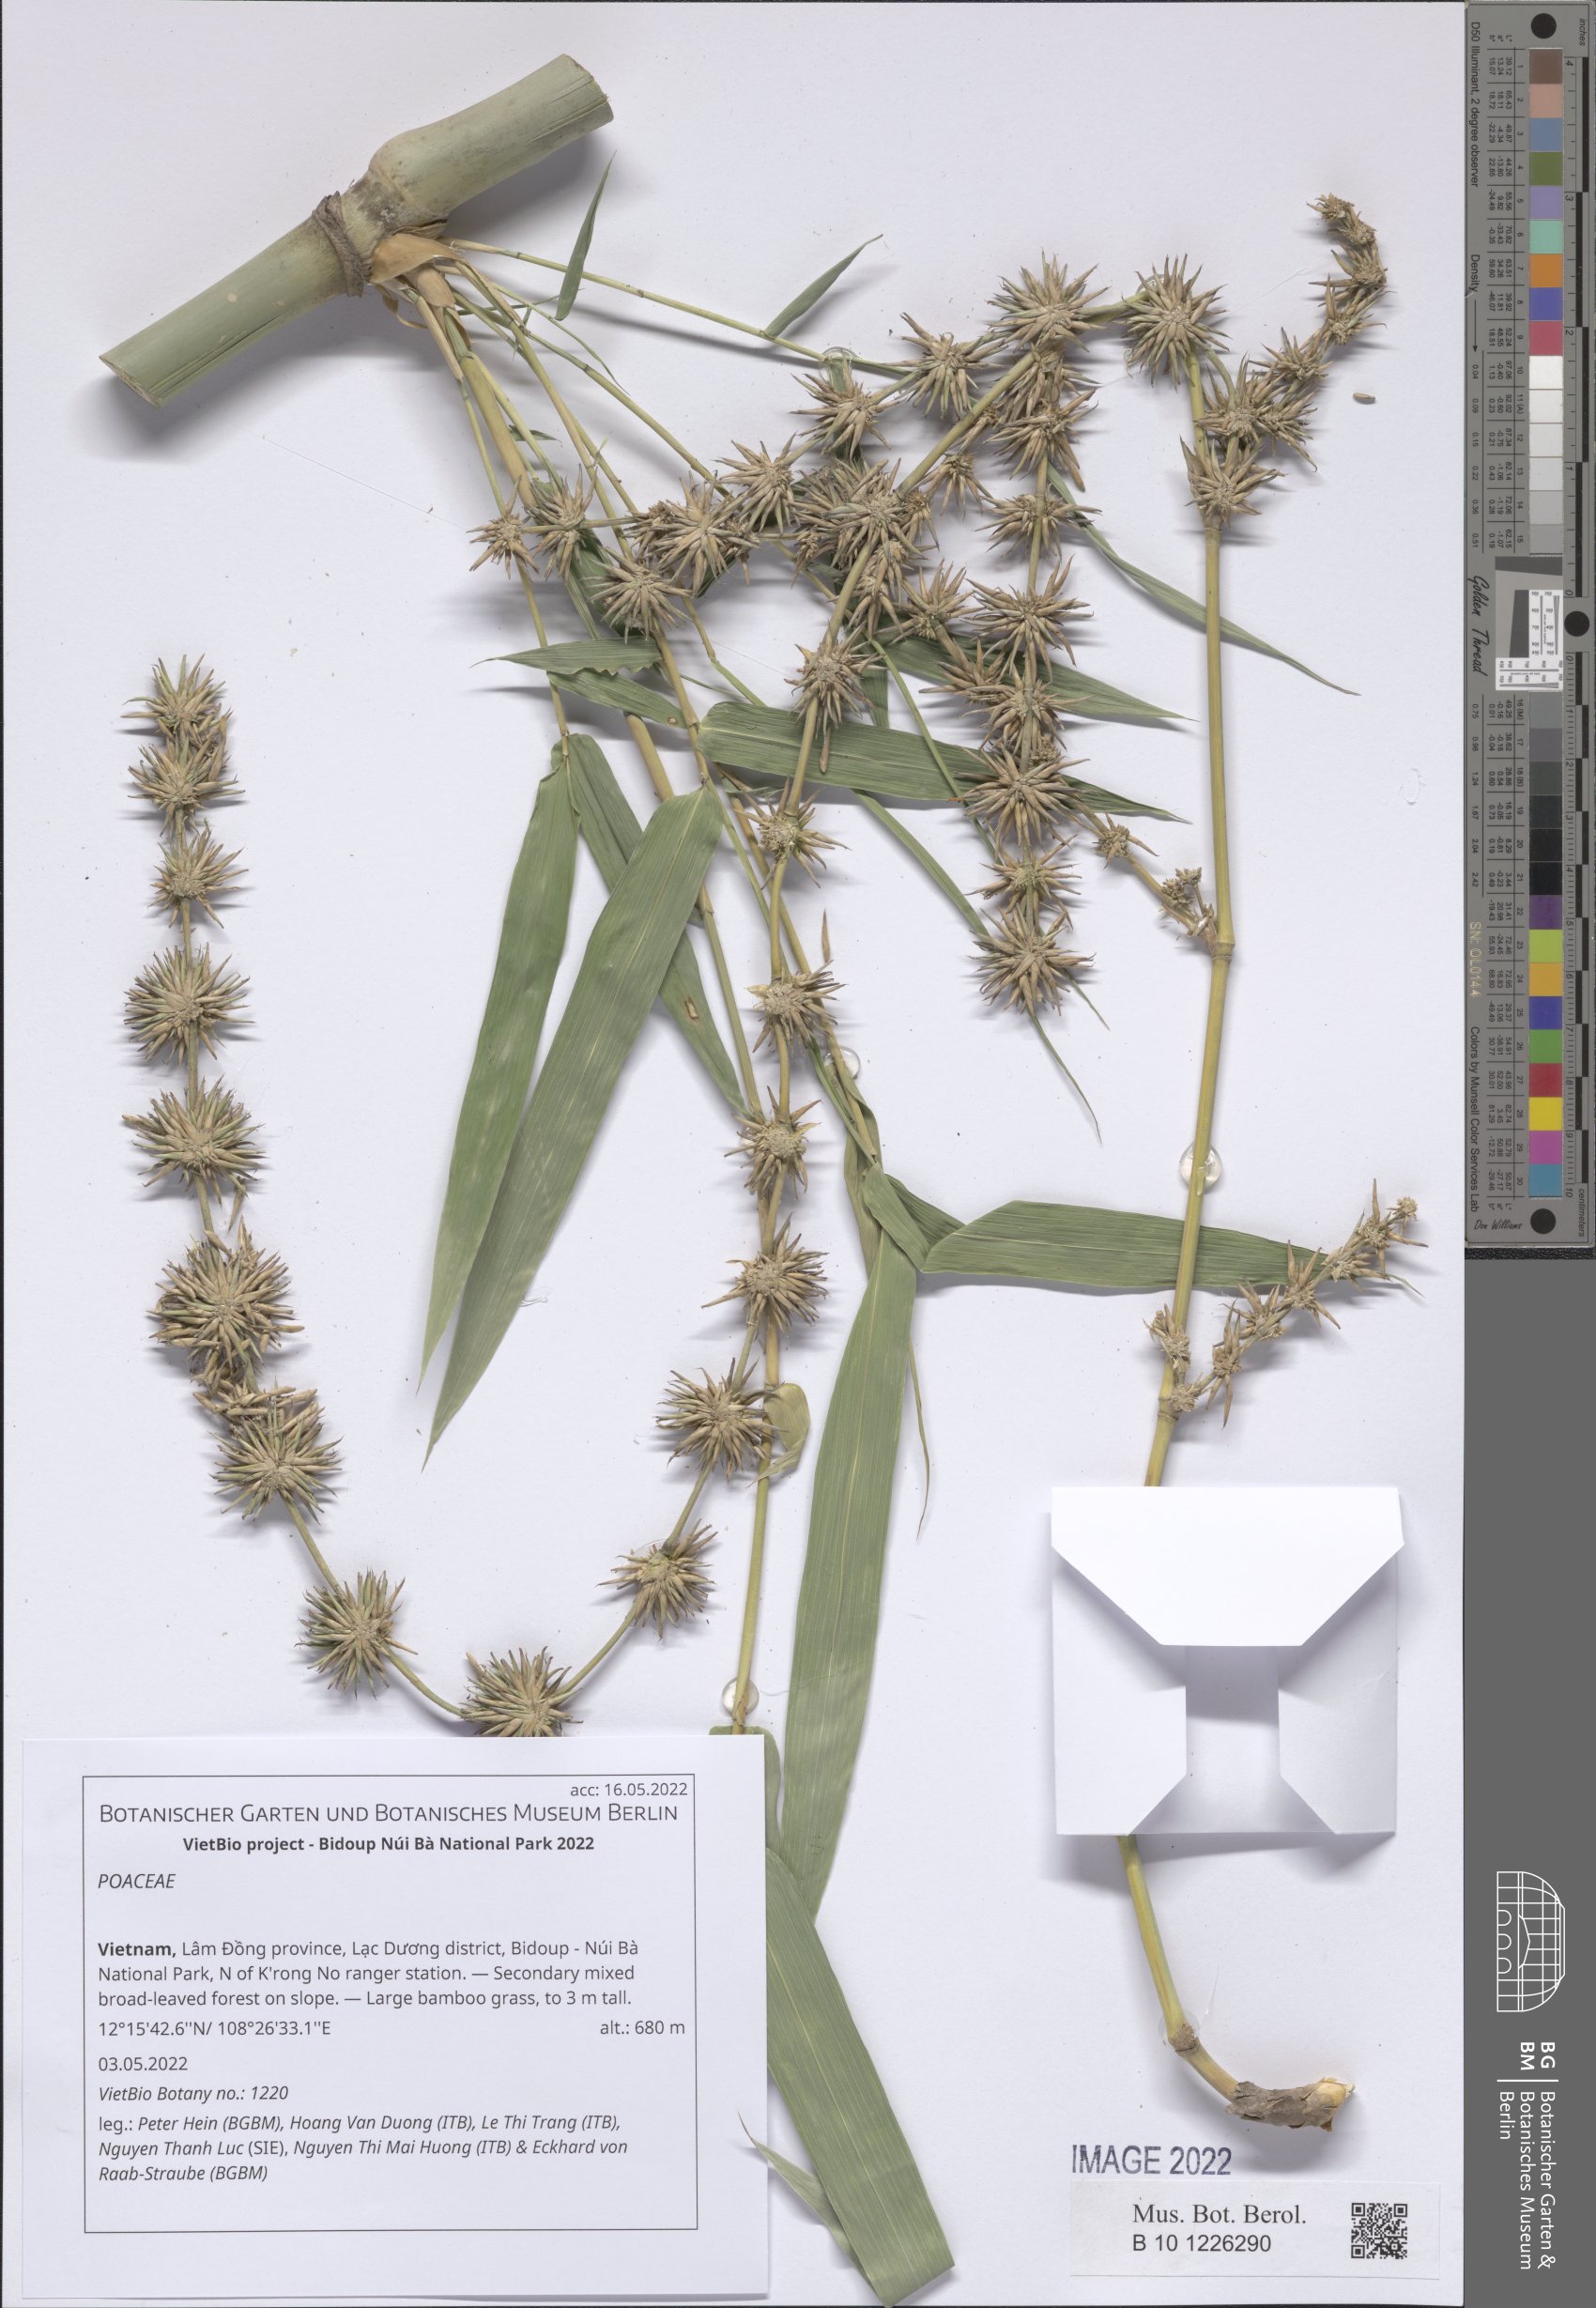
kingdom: Plantae
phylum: Tracheophyta
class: Liliopsida
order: Poales
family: Poaceae
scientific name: Poaceae
